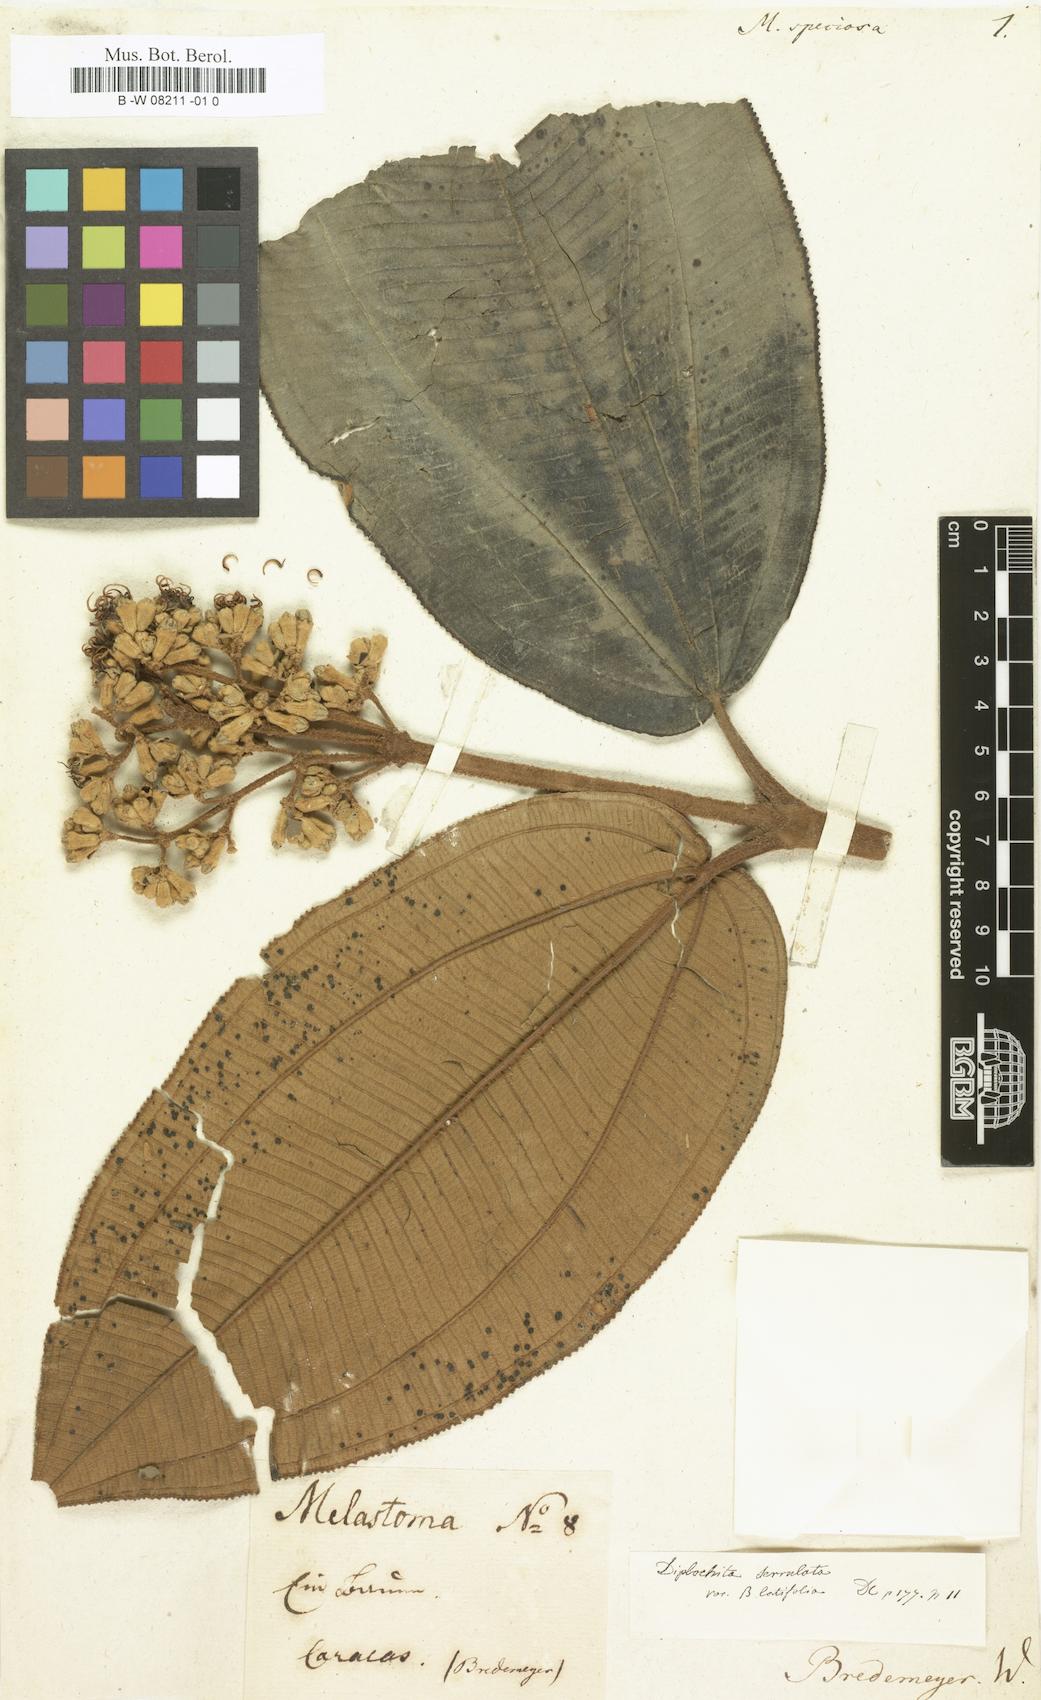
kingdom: Plantae
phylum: Tracheophyta
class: Magnoliopsida
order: Myrtales
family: Melastomataceae
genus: Medinilla
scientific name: Medinilla speciosa
